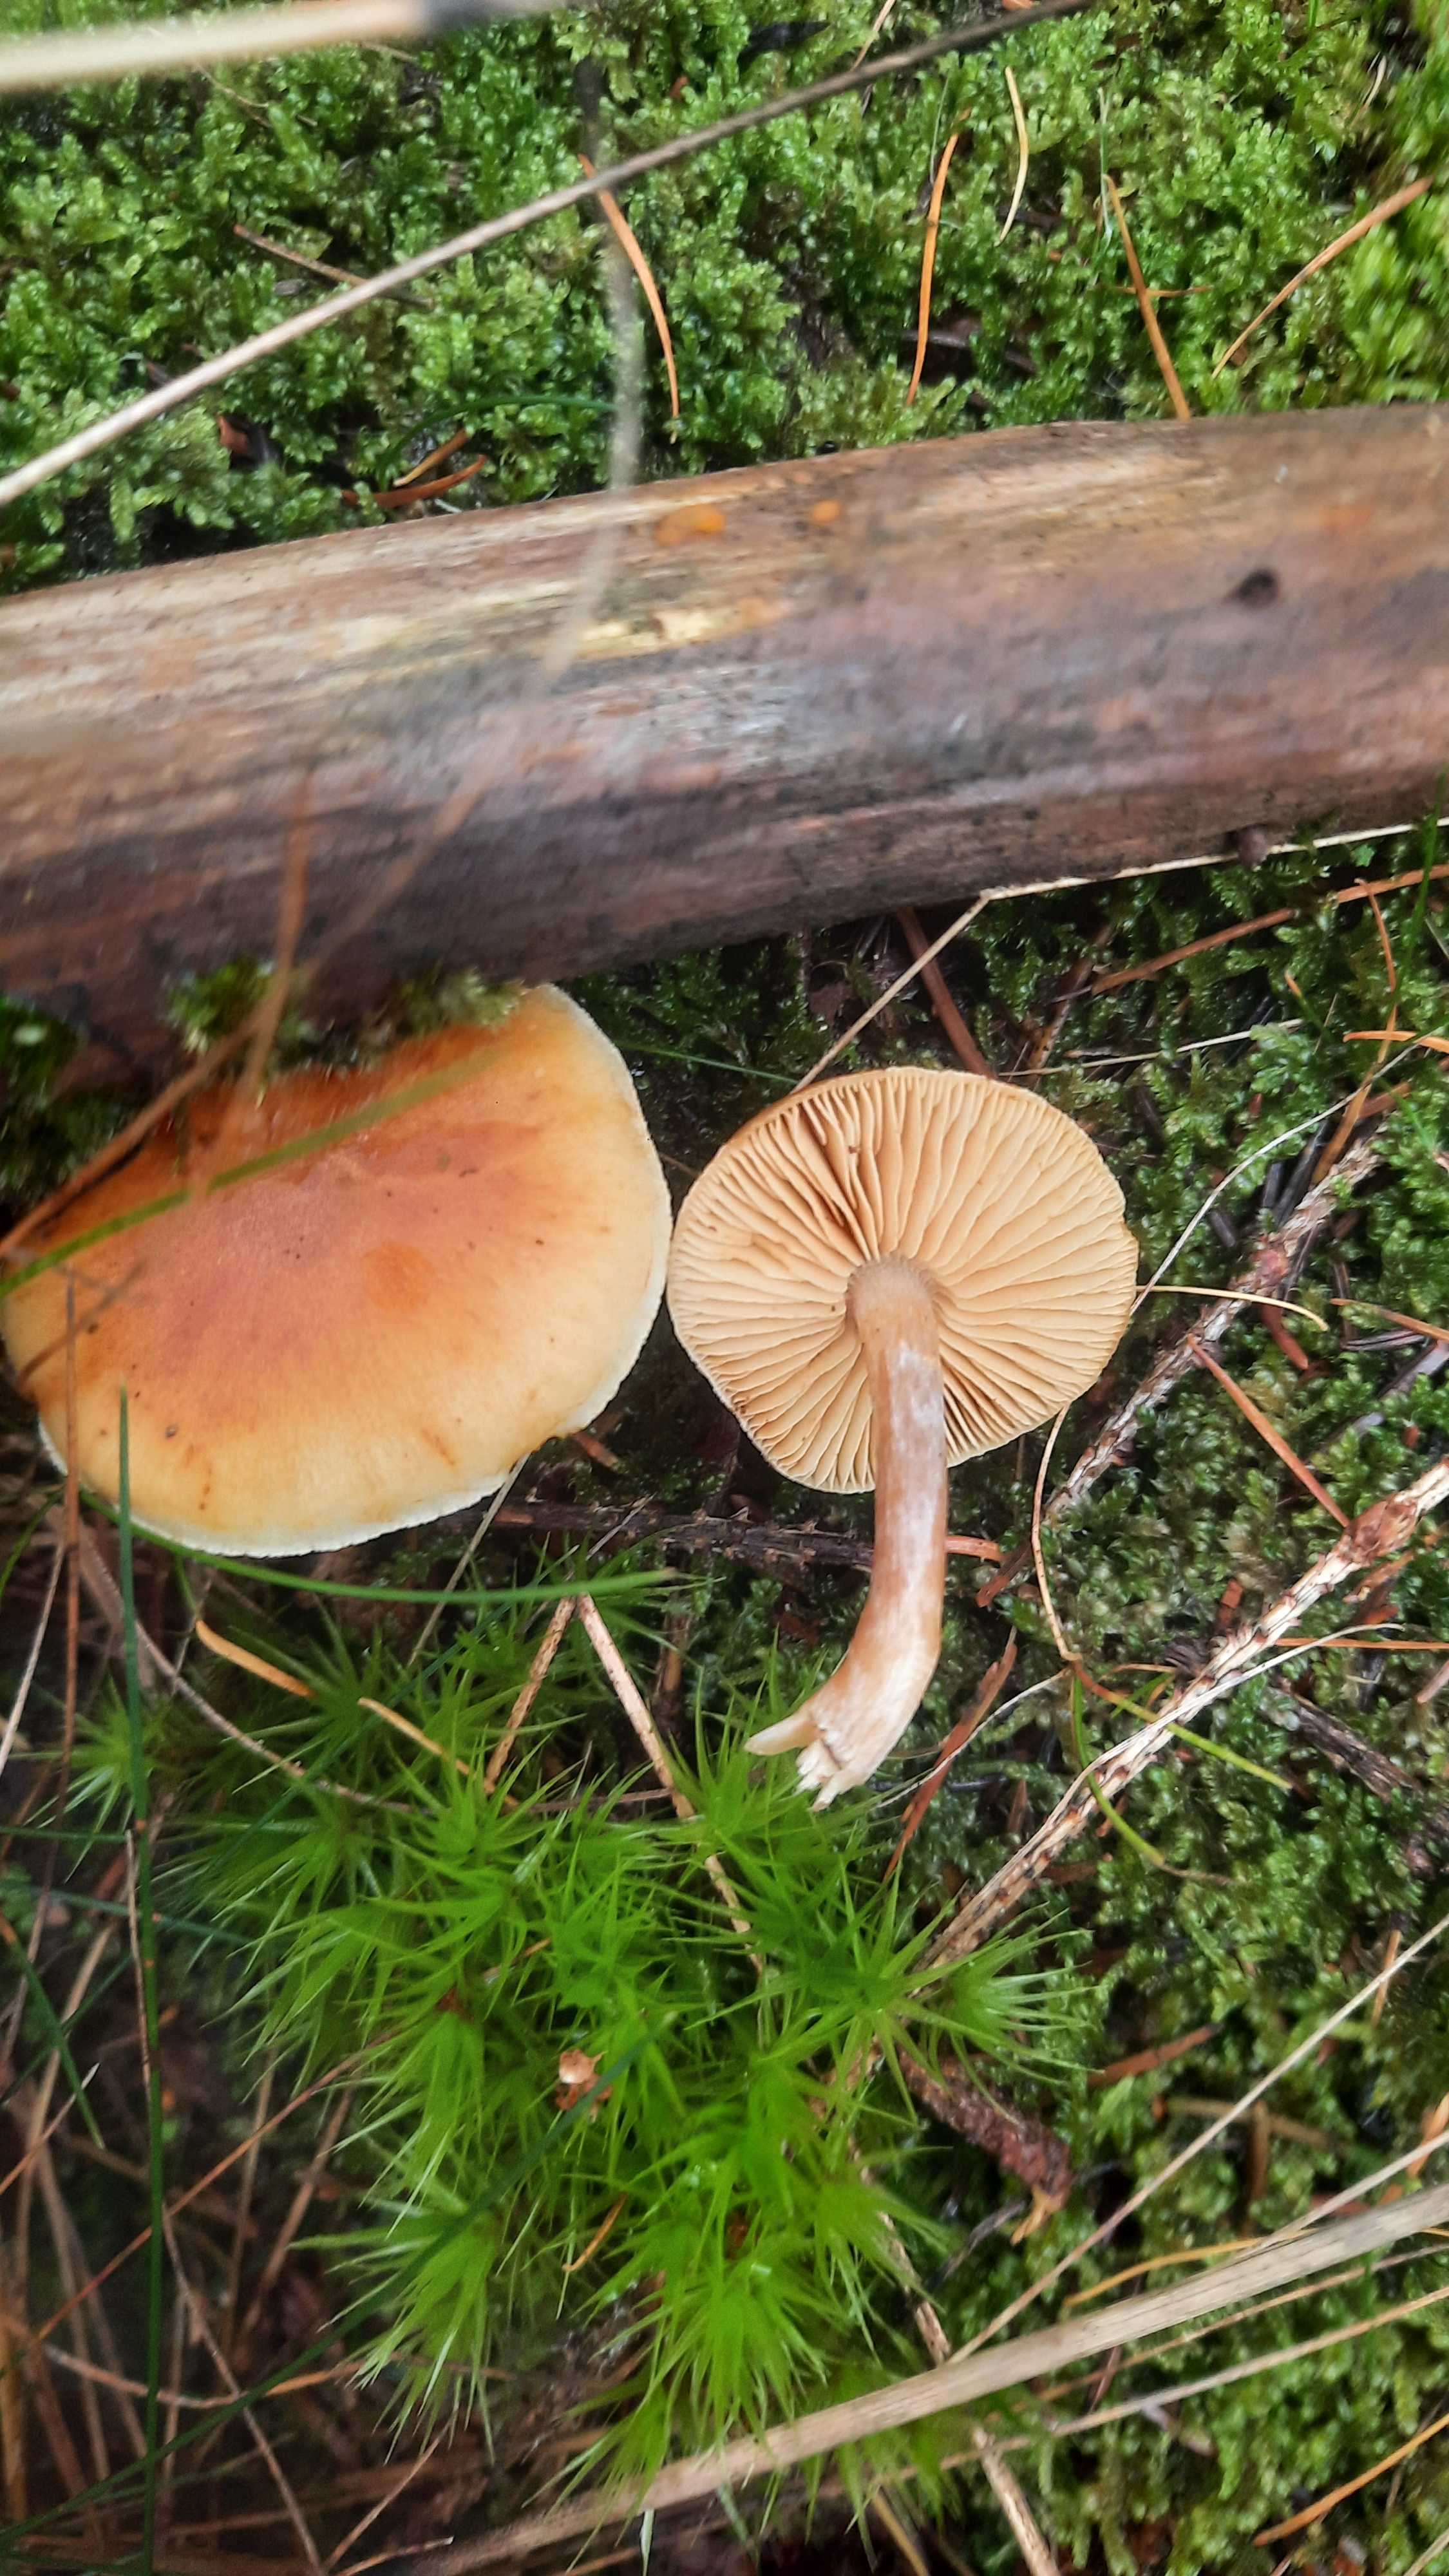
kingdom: Fungi
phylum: Basidiomycota
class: Agaricomycetes
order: Agaricales
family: Hymenogastraceae
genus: Gymnopilus
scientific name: Gymnopilus penetrans
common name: plettet flammehat
